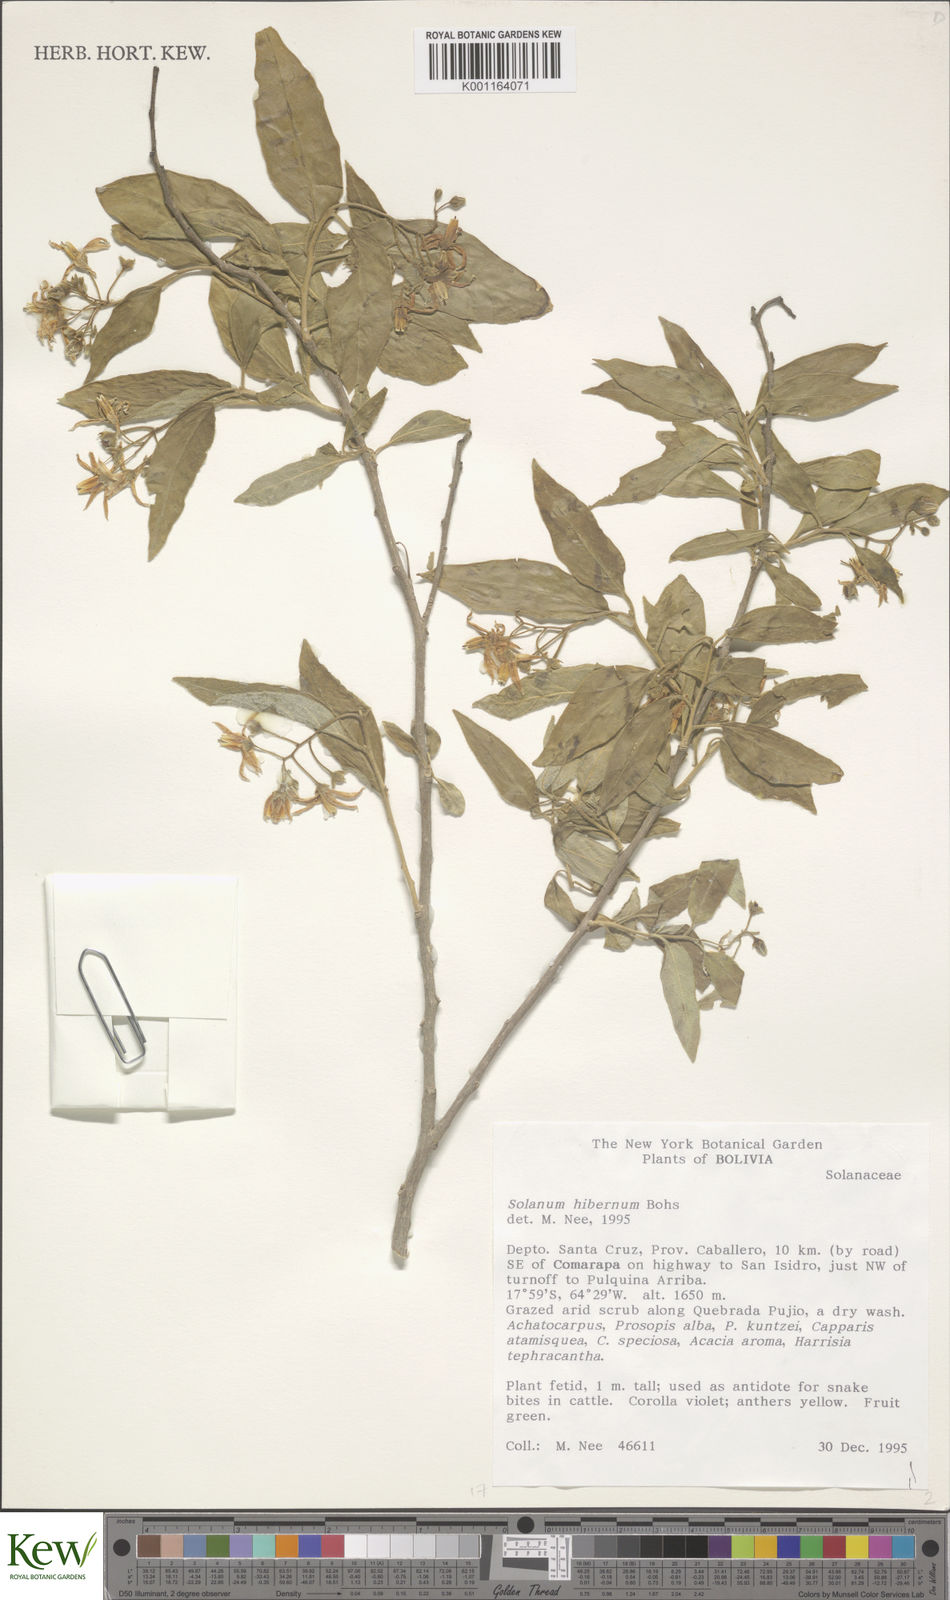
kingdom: Plantae
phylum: Tracheophyta
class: Magnoliopsida
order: Solanales
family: Solanaceae
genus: Solanum
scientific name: Solanum hibernum
